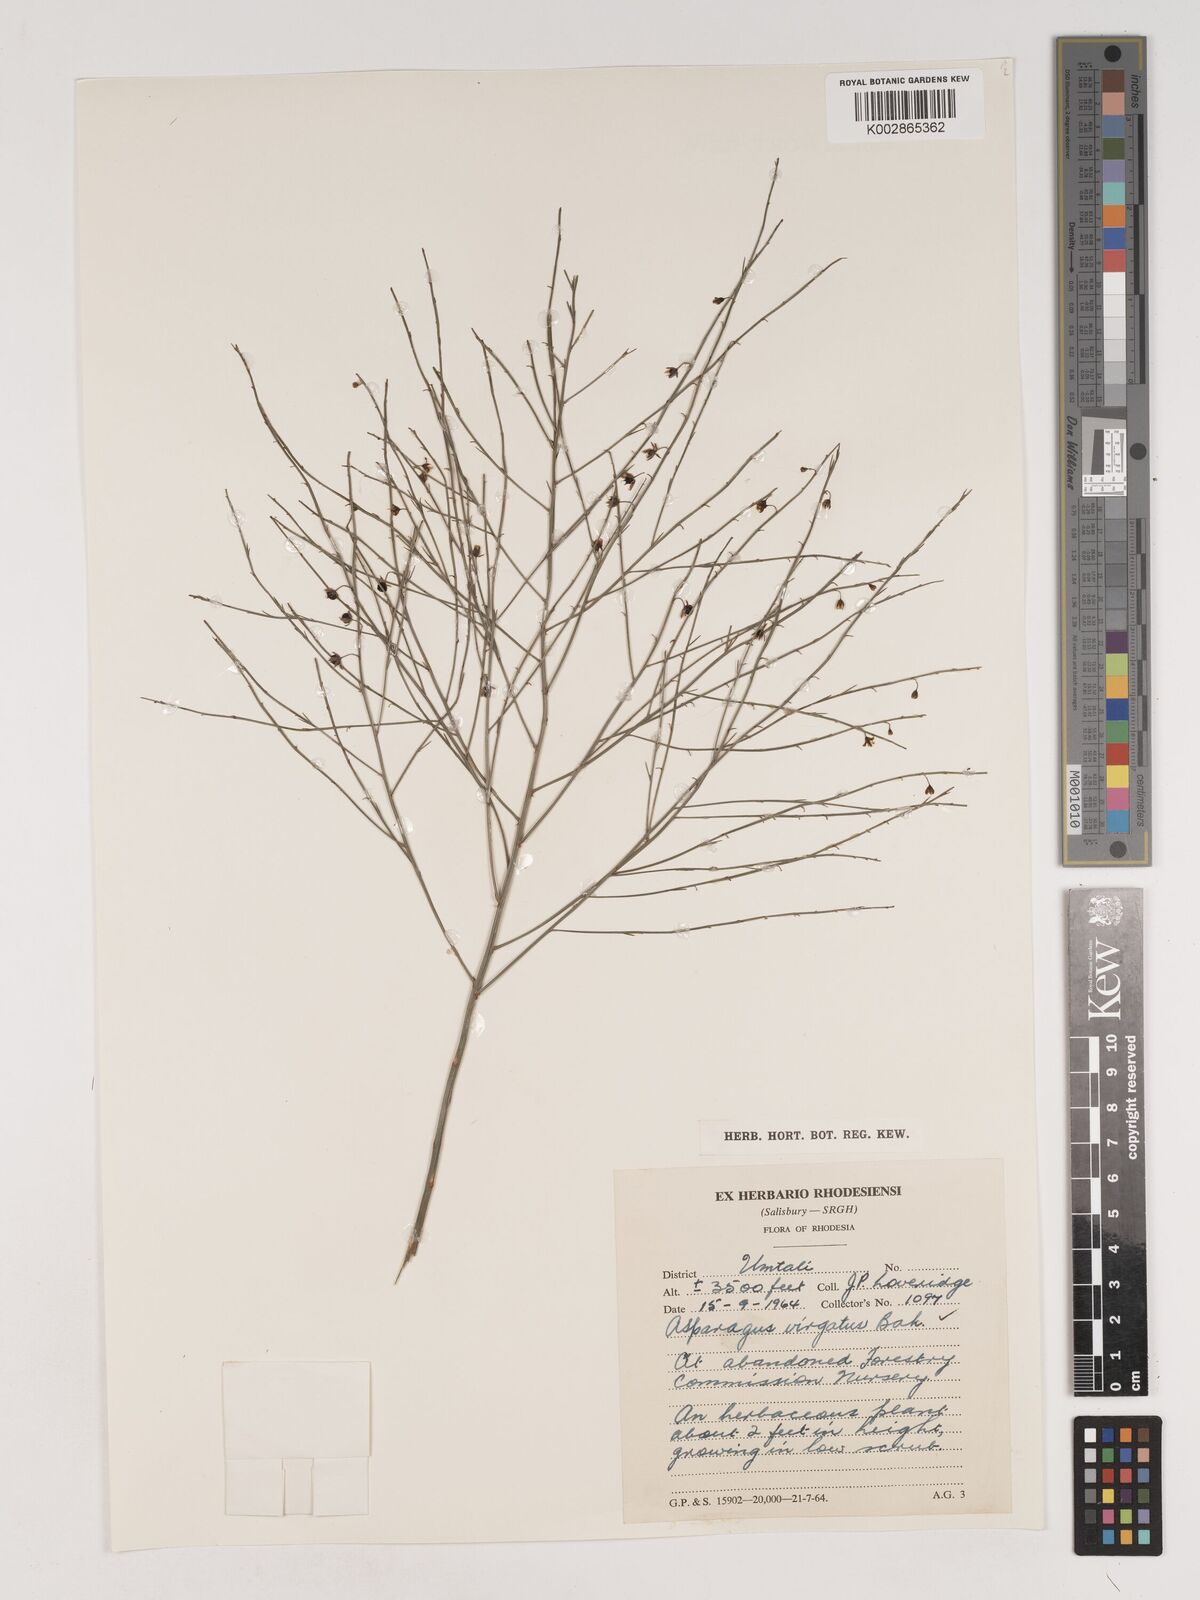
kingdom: Plantae
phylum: Tracheophyta
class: Liliopsida
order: Asparagales
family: Asparagaceae
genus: Asparagus
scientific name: Asparagus virgatus
